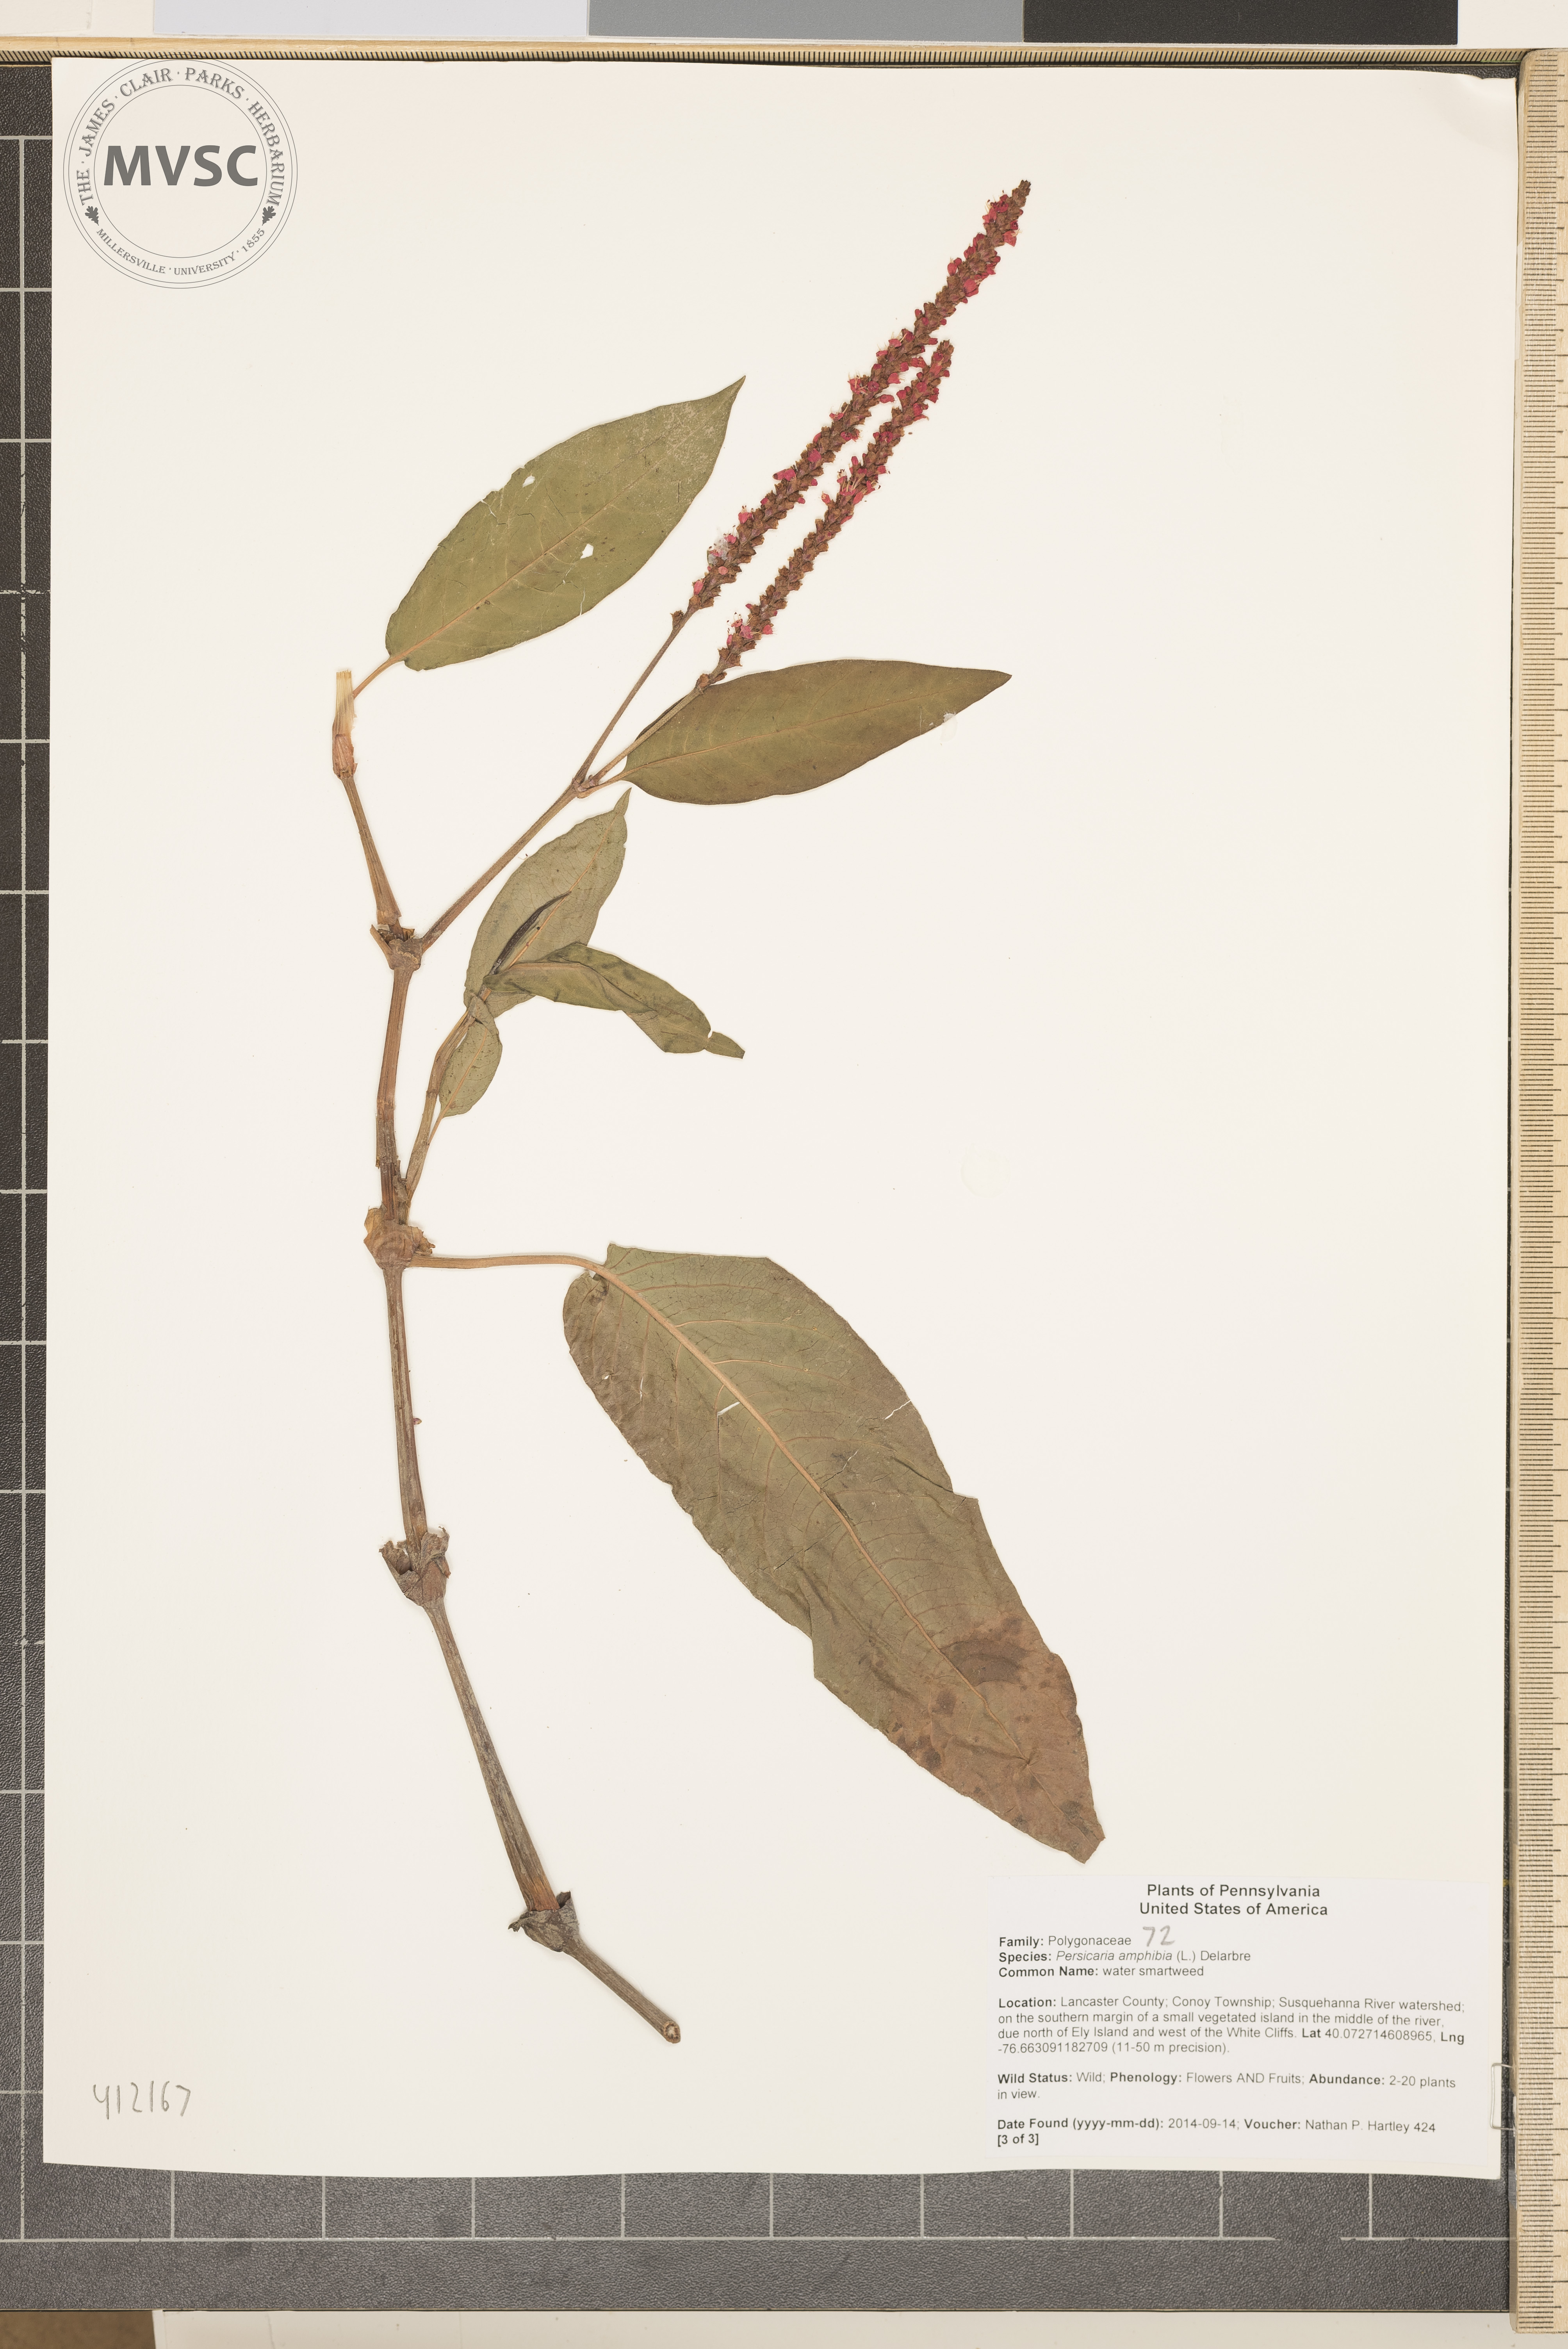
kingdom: Plantae
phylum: Tracheophyta
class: Magnoliopsida
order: Caryophyllales
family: Polygonaceae
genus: Persicaria
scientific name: Persicaria amphibia
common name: water smartweed
